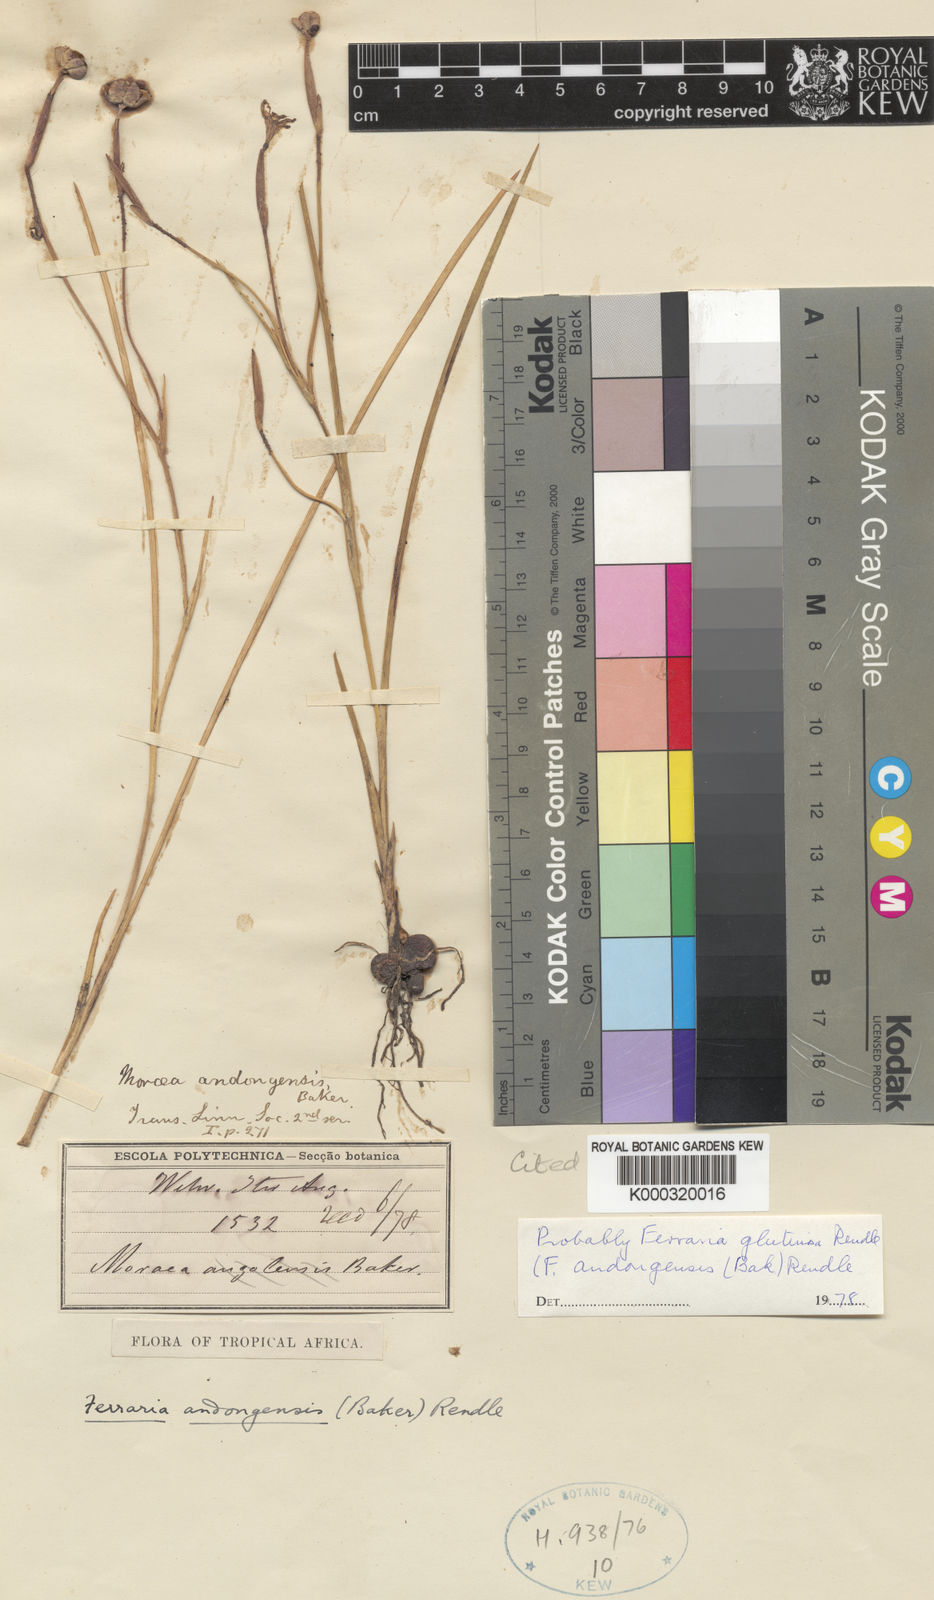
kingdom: Plantae
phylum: Tracheophyta
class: Liliopsida
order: Asparagales
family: Iridaceae
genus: Ferraria
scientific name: Ferraria candelabrum
